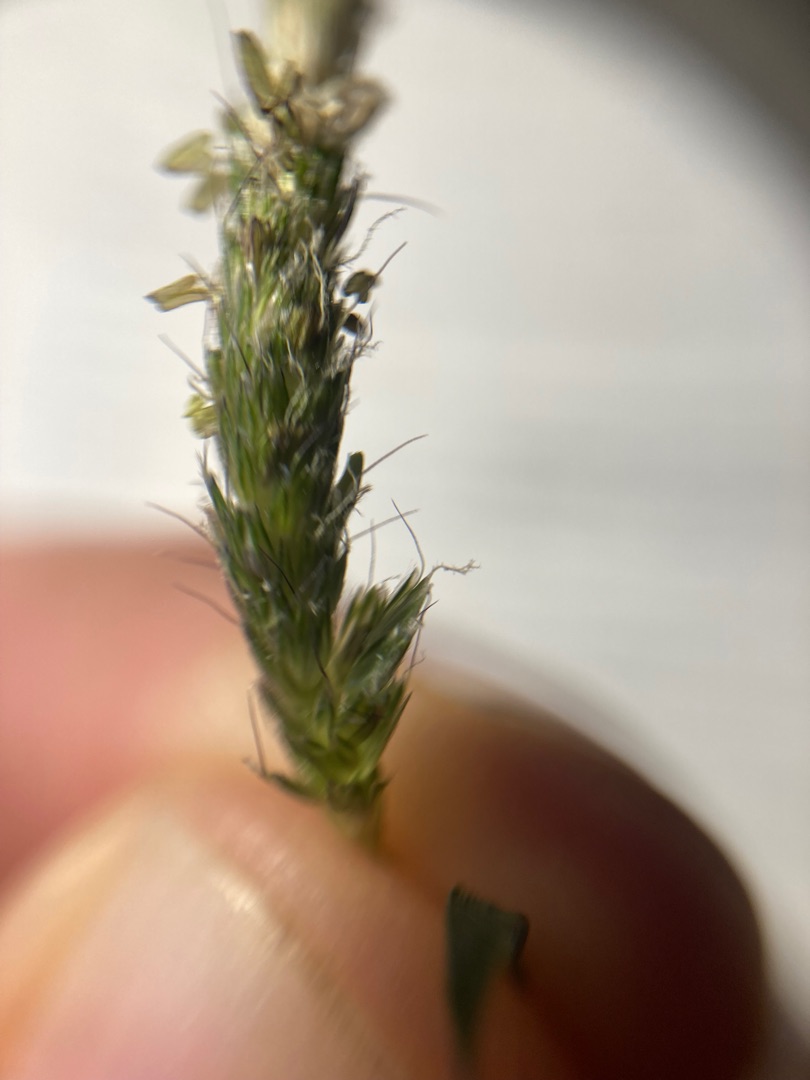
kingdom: Plantae
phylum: Tracheophyta
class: Liliopsida
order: Poales
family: Poaceae
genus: Alopecurus
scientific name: Alopecurus geniculatus
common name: Knæbøjet rævehale
